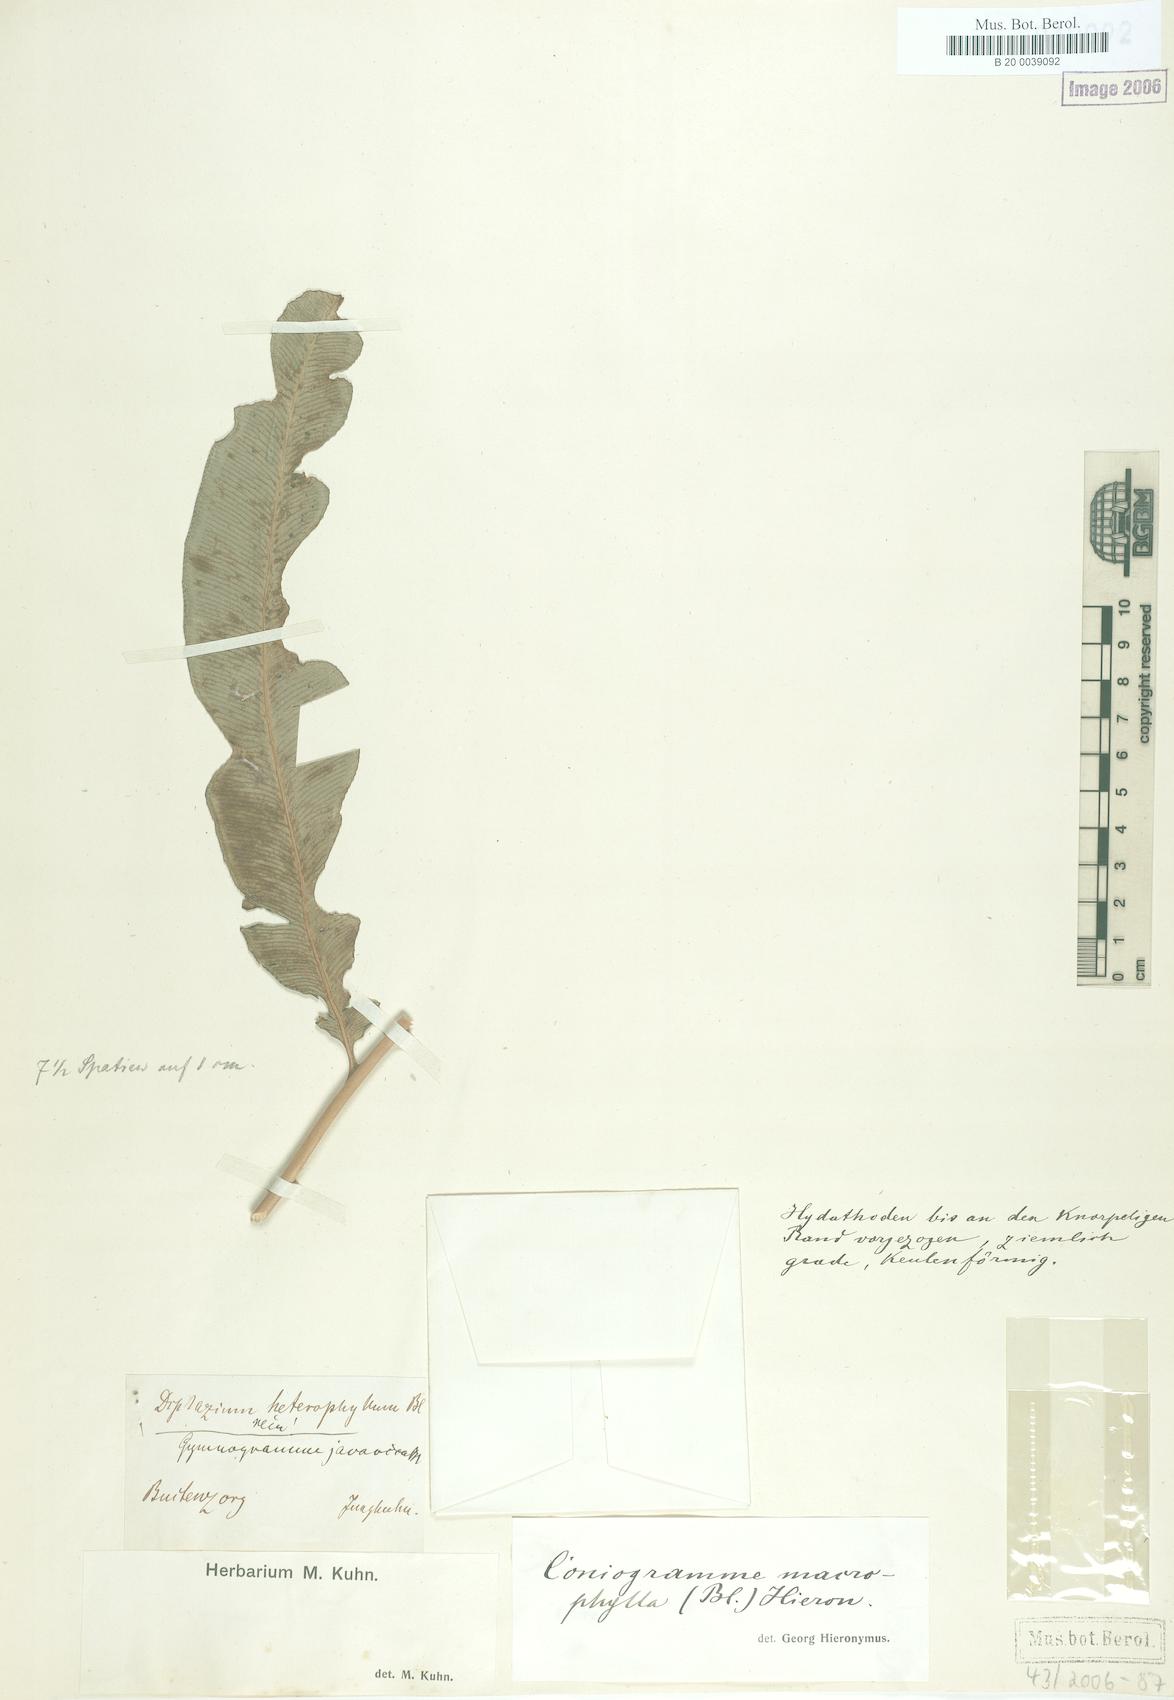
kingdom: Plantae
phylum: Tracheophyta
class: Polypodiopsida
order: Polypodiales
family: Pteridaceae
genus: Coniogramme
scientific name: Coniogramme fraxinea
